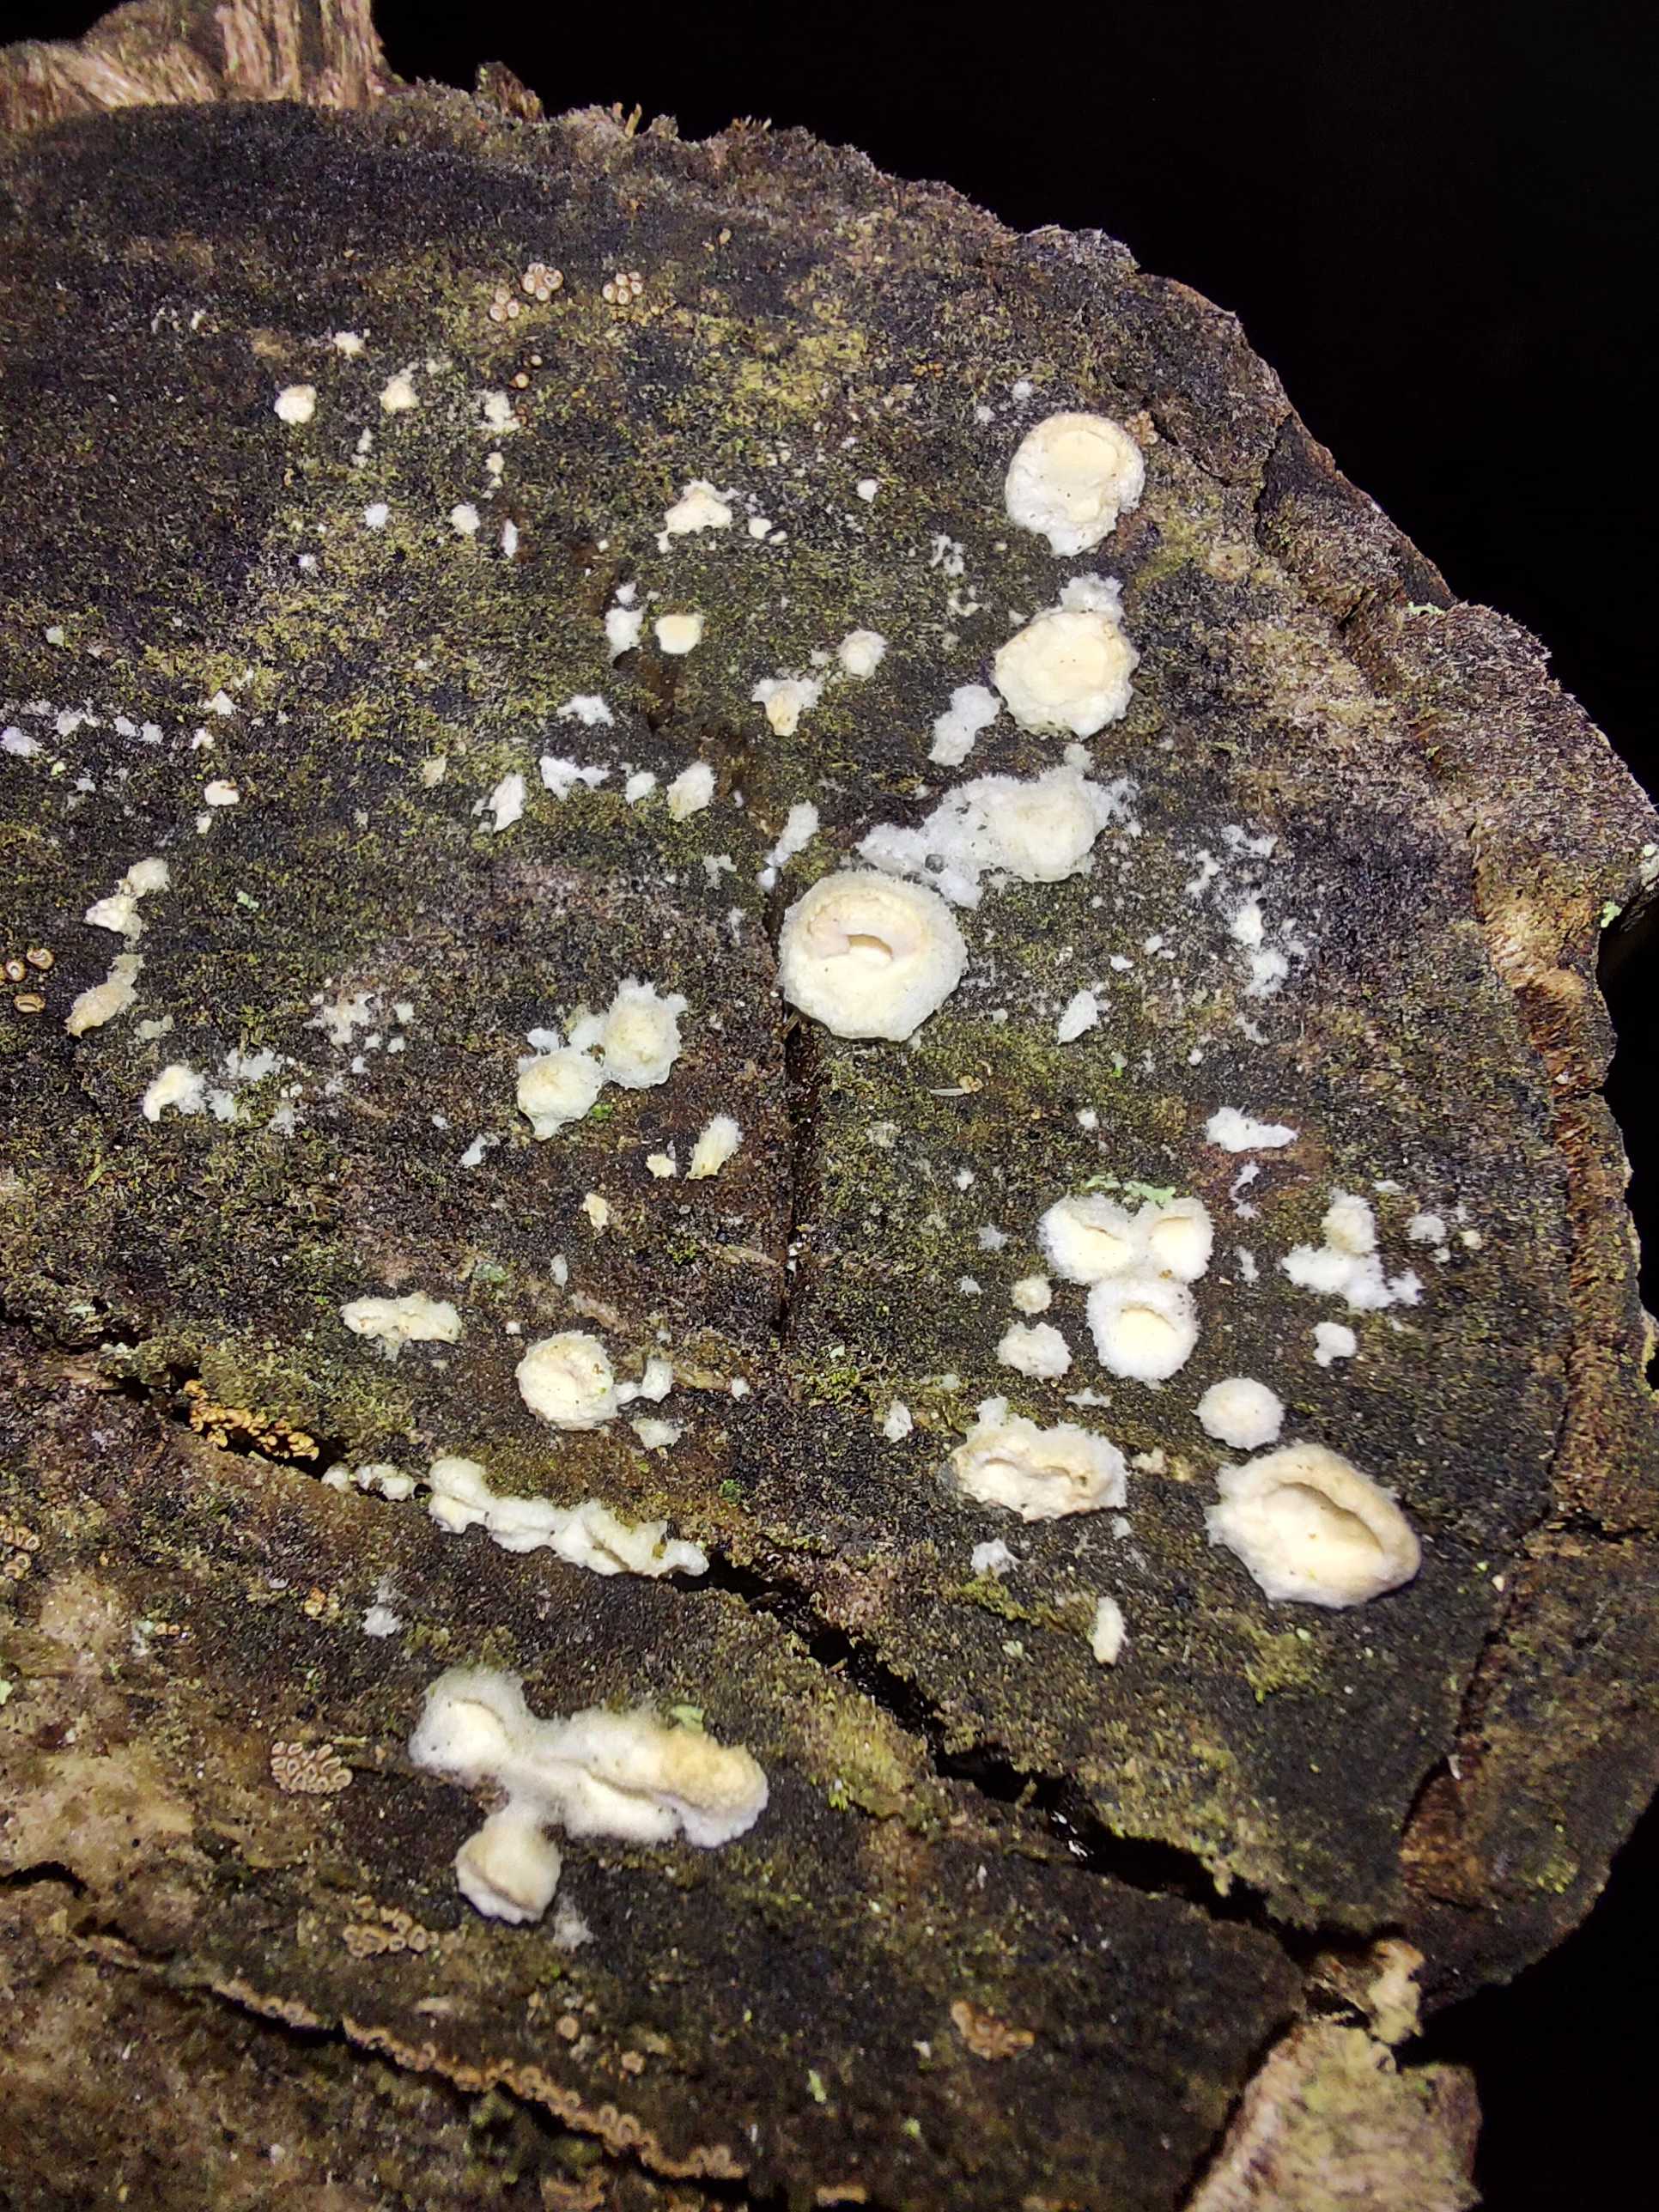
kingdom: Fungi
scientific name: Fungi
